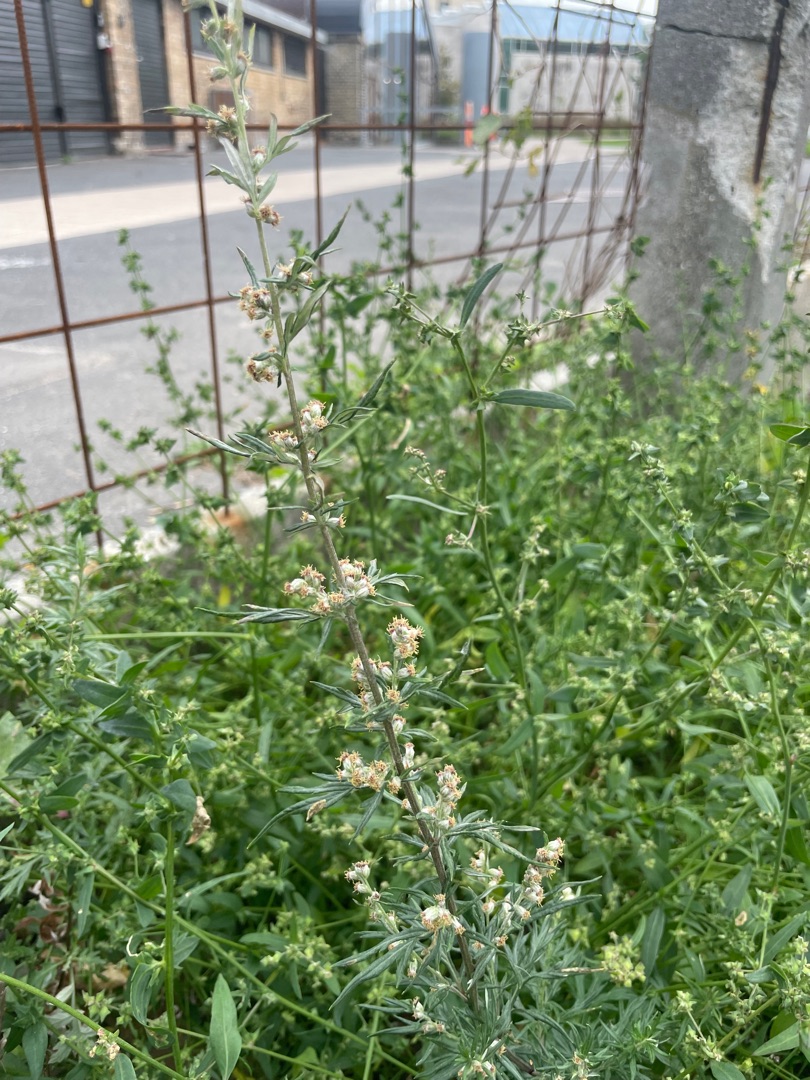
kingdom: Plantae
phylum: Tracheophyta
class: Magnoliopsida
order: Asterales
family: Asteraceae
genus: Artemisia
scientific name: Artemisia vulgaris
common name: Grå-bynke
